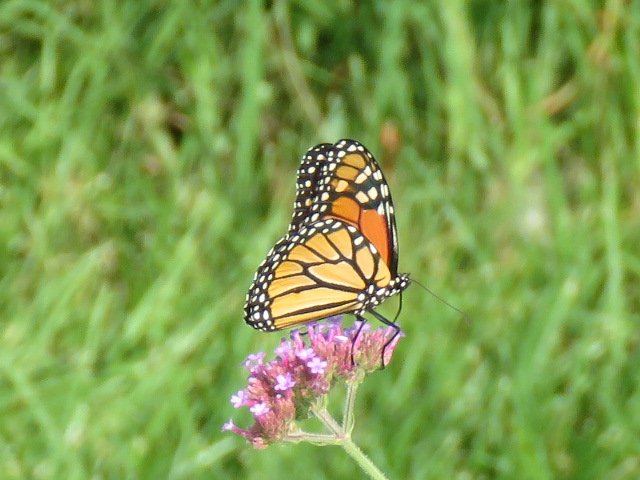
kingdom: Animalia
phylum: Arthropoda
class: Insecta
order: Lepidoptera
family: Nymphalidae
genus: Danaus
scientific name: Danaus plexippus
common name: Monarch
